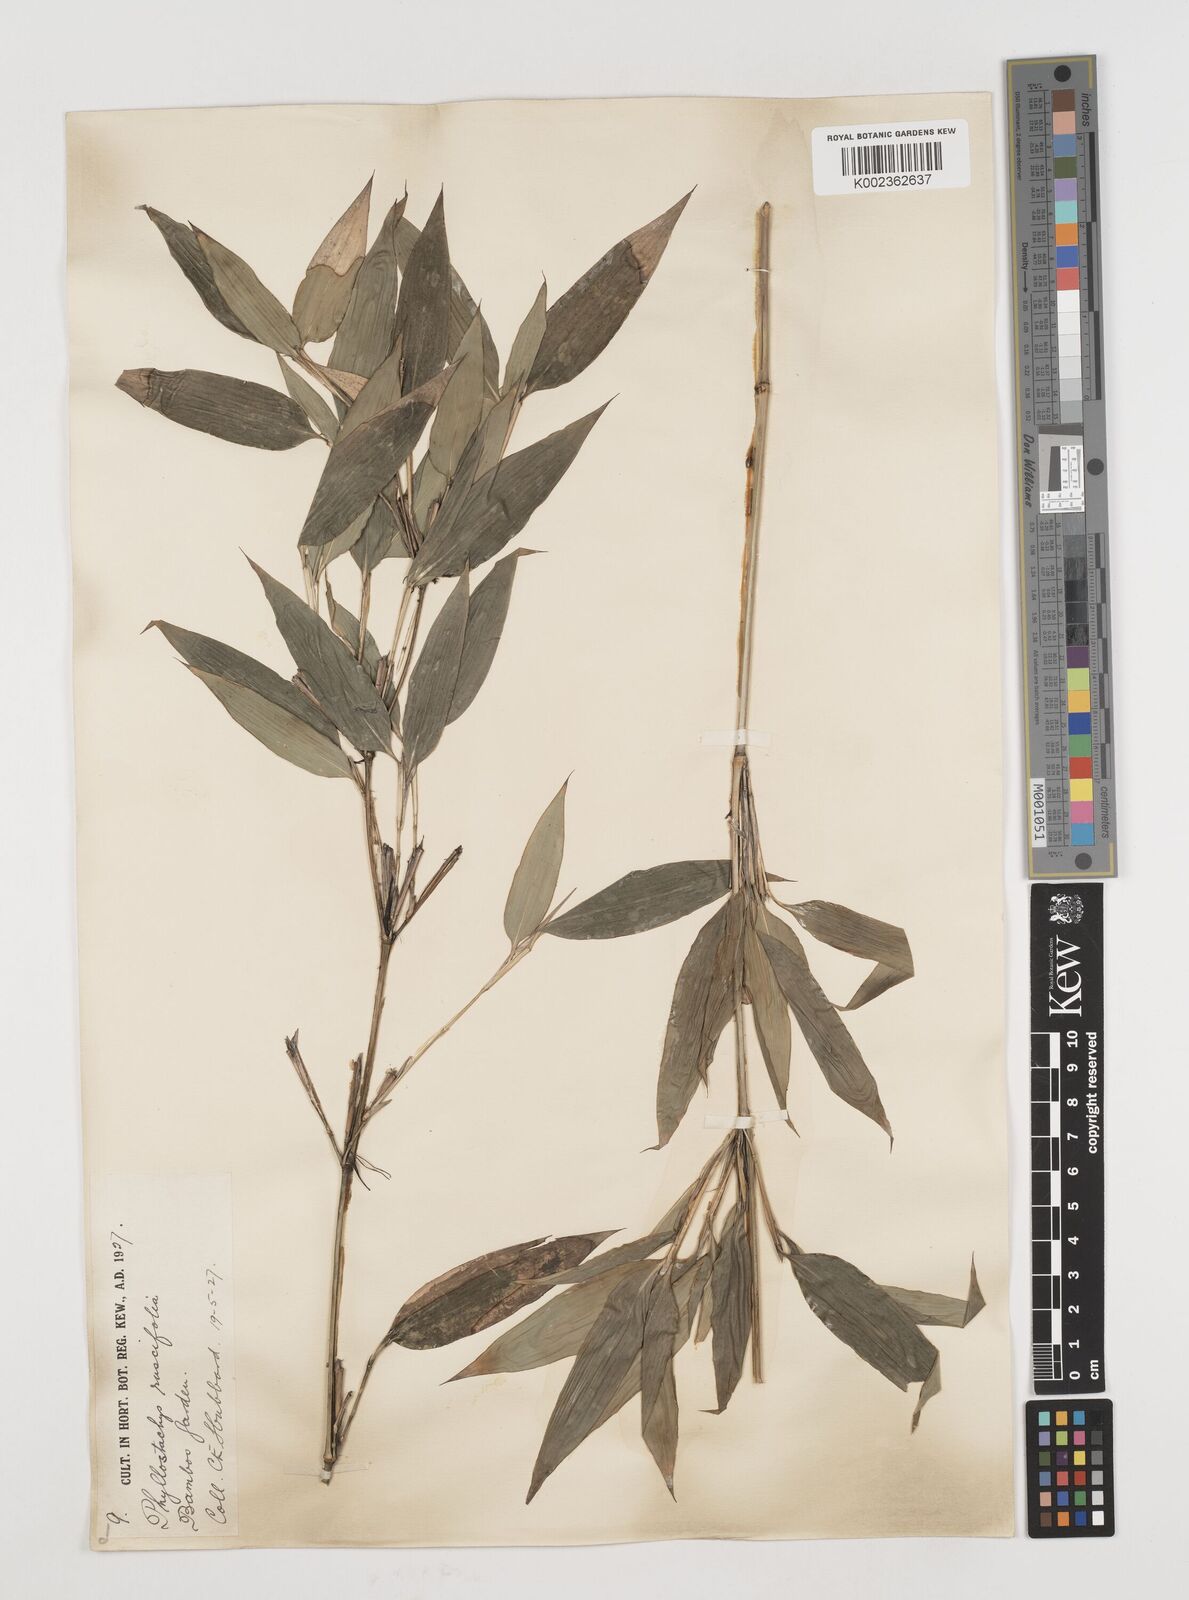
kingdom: Plantae
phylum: Tracheophyta
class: Liliopsida
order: Poales
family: Poaceae
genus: Shibataea
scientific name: Shibataea kumasasa
